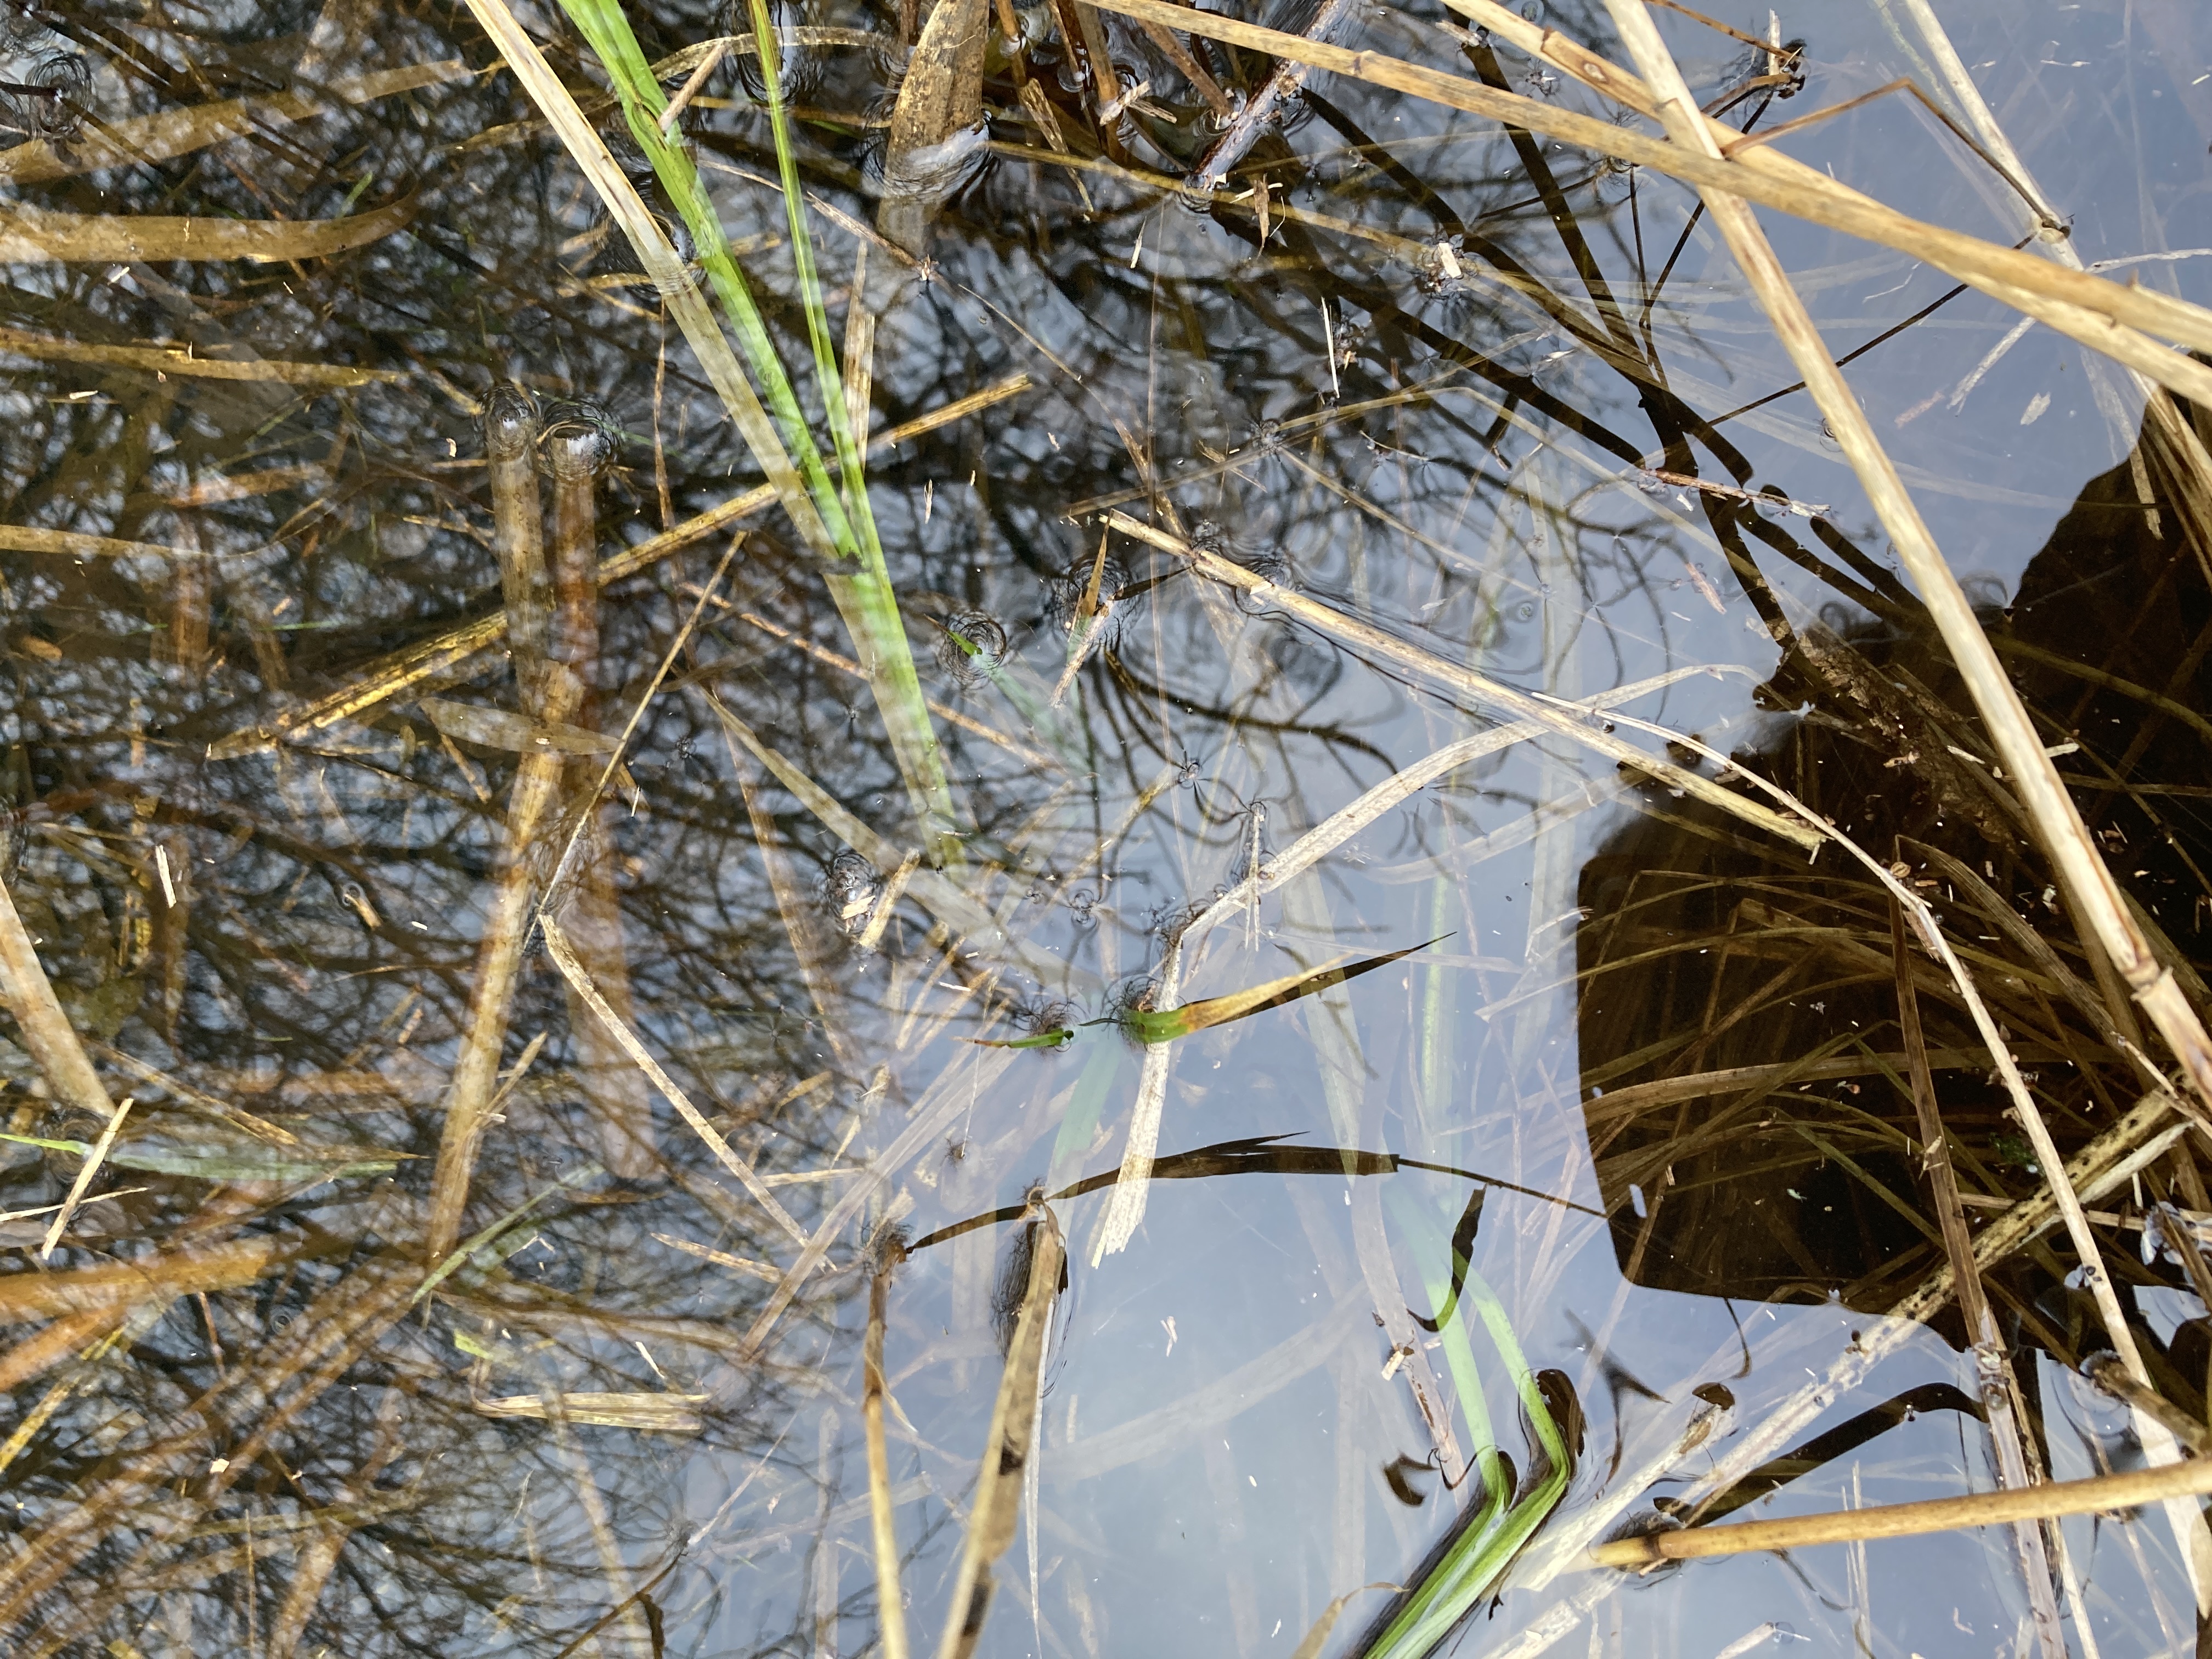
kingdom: Plantae
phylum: Tracheophyta
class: Liliopsida
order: Poales
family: Cyperaceae
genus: Carex
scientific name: Carex
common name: Starslægten
